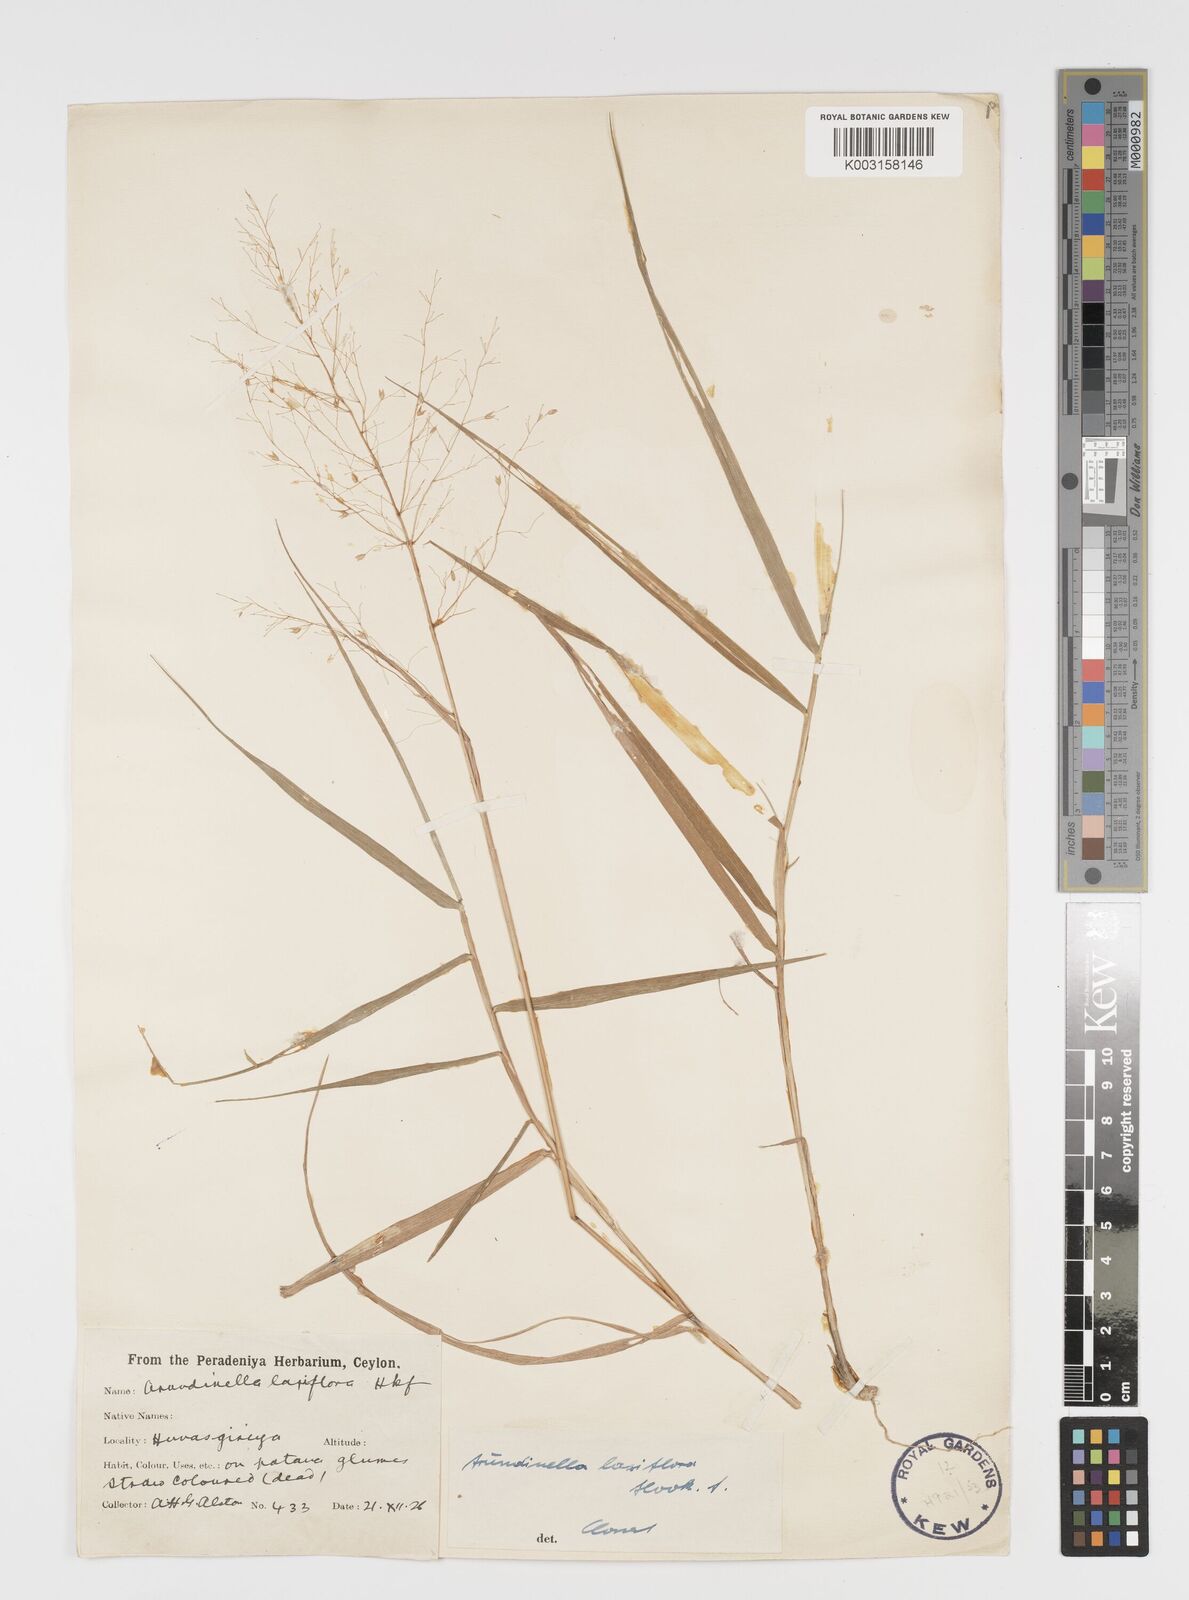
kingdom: Plantae
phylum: Tracheophyta
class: Liliopsida
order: Poales
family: Poaceae
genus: Arundinella
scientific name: Arundinella laxiflora
